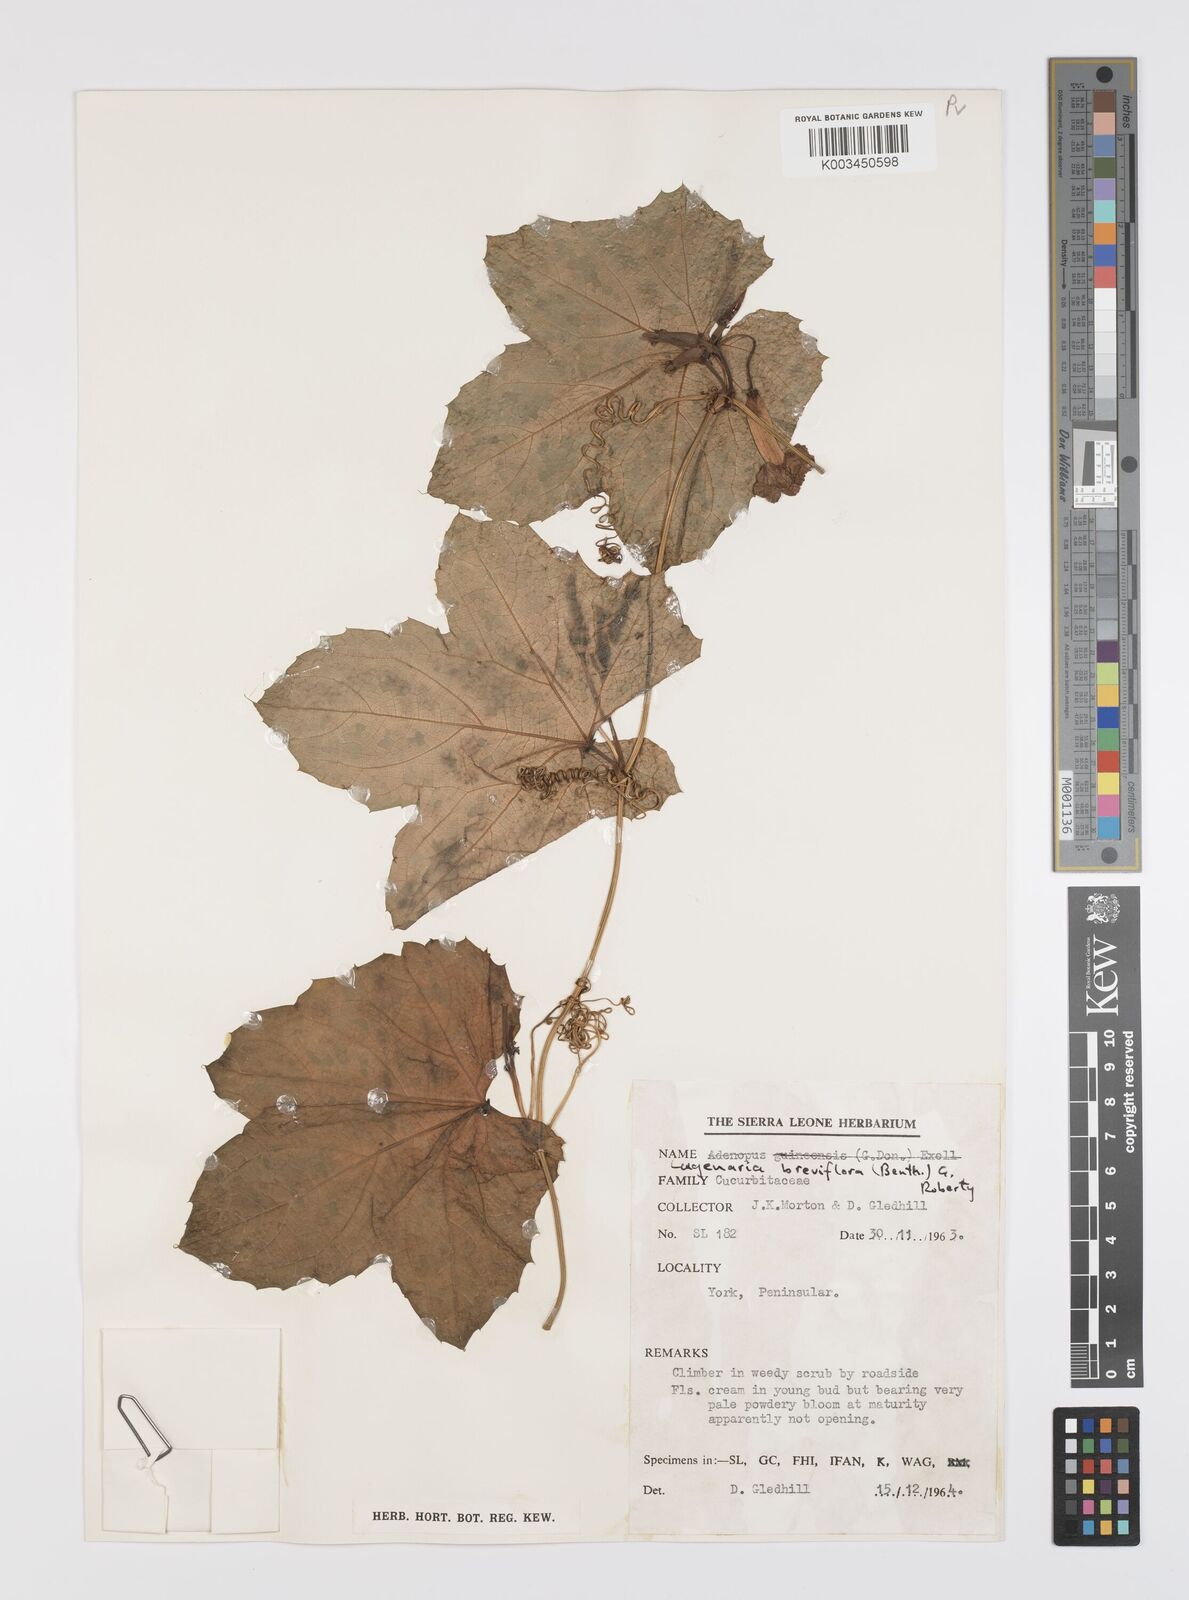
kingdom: Plantae
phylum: Tracheophyta
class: Magnoliopsida
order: Cucurbitales
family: Cucurbitaceae
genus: Lagenaria
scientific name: Lagenaria breviflora
